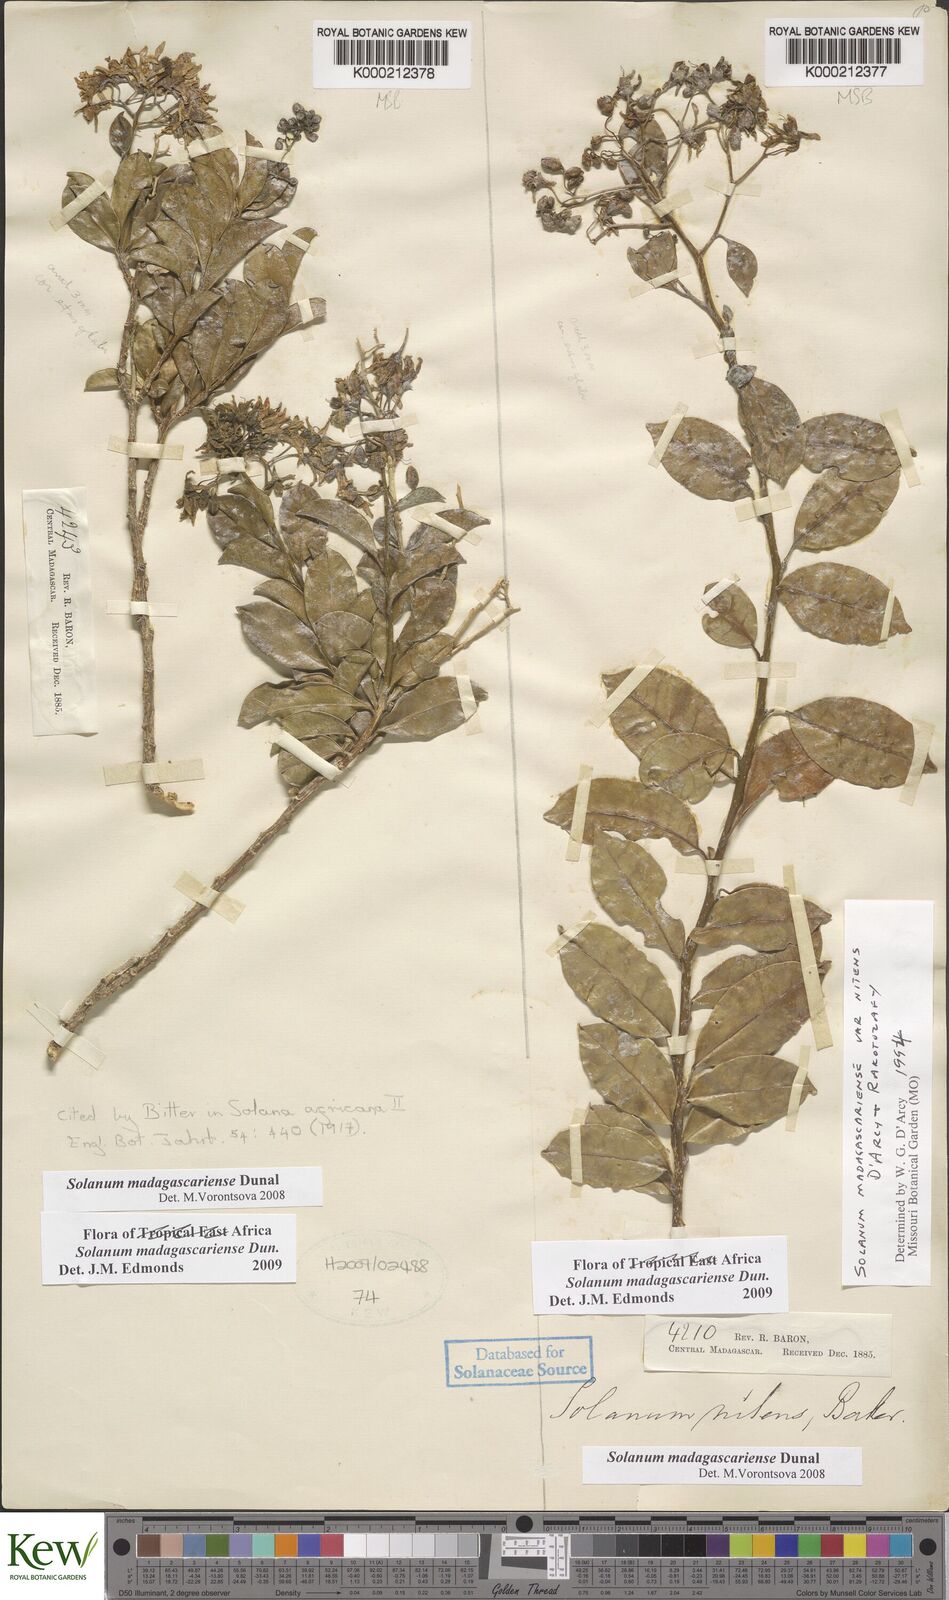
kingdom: Plantae
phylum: Tracheophyta
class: Magnoliopsida
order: Solanales
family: Solanaceae
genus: Solanum
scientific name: Solanum madagascariense
